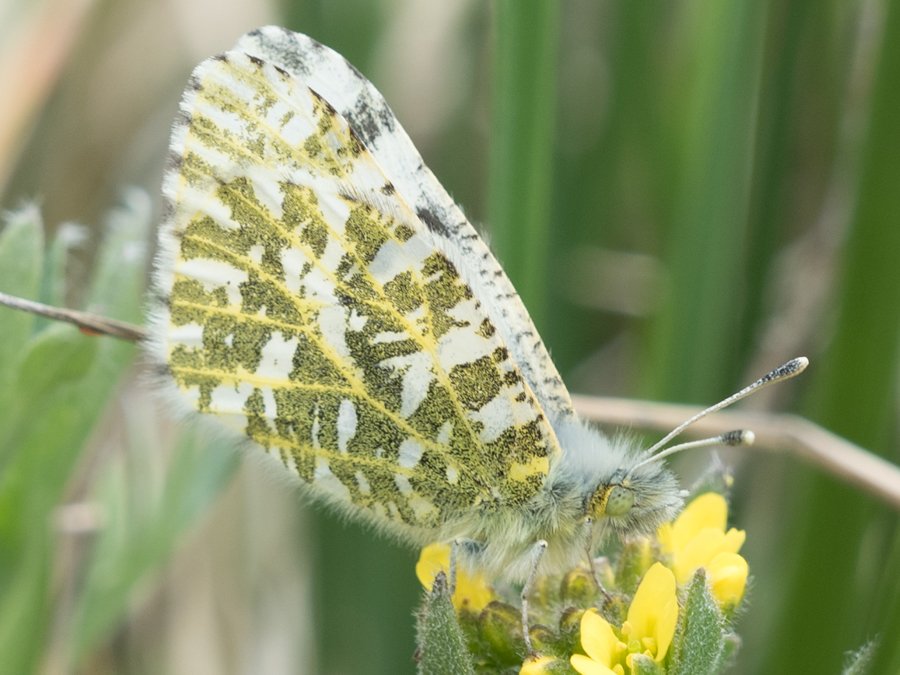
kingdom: Animalia
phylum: Arthropoda
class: Insecta
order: Lepidoptera
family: Pieridae
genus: Euchloe
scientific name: Euchloe creusa
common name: Northern Marble
